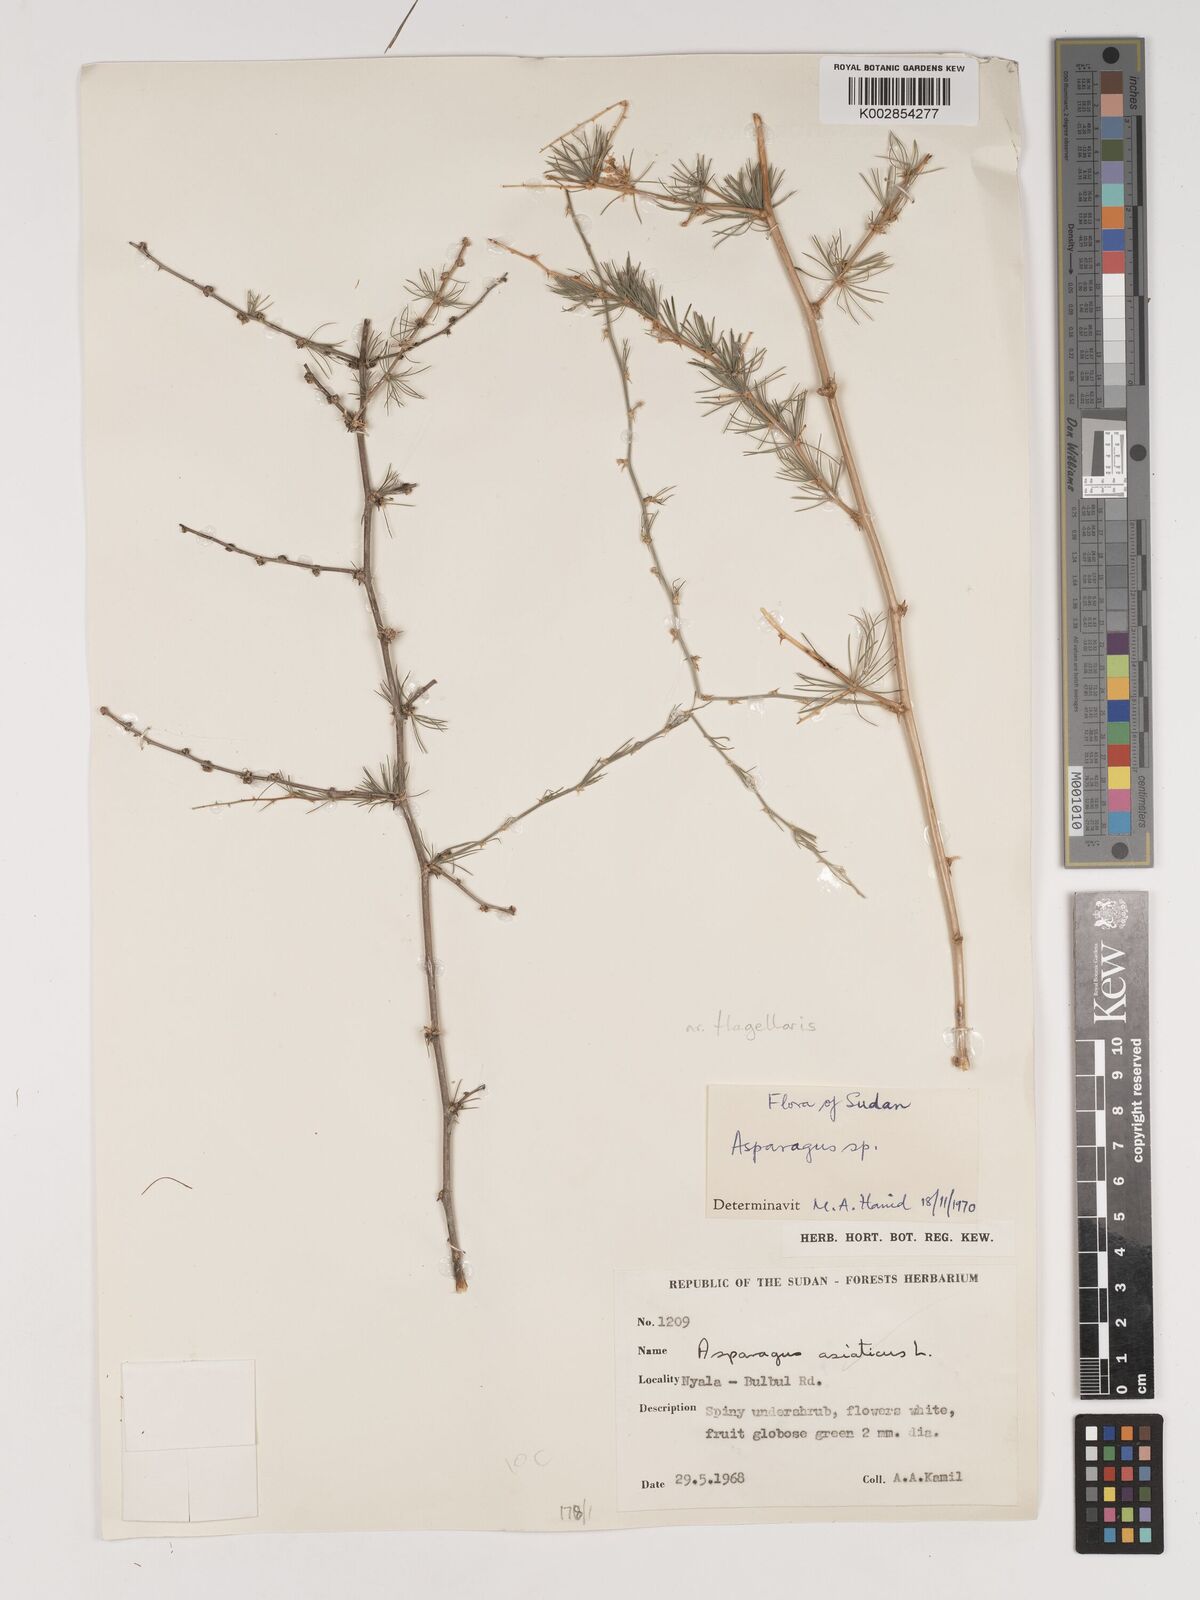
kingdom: Plantae
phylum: Tracheophyta
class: Liliopsida
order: Asparagales
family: Asparagaceae
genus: Asparagus
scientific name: Asparagus africanus
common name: Asparagus-fern
